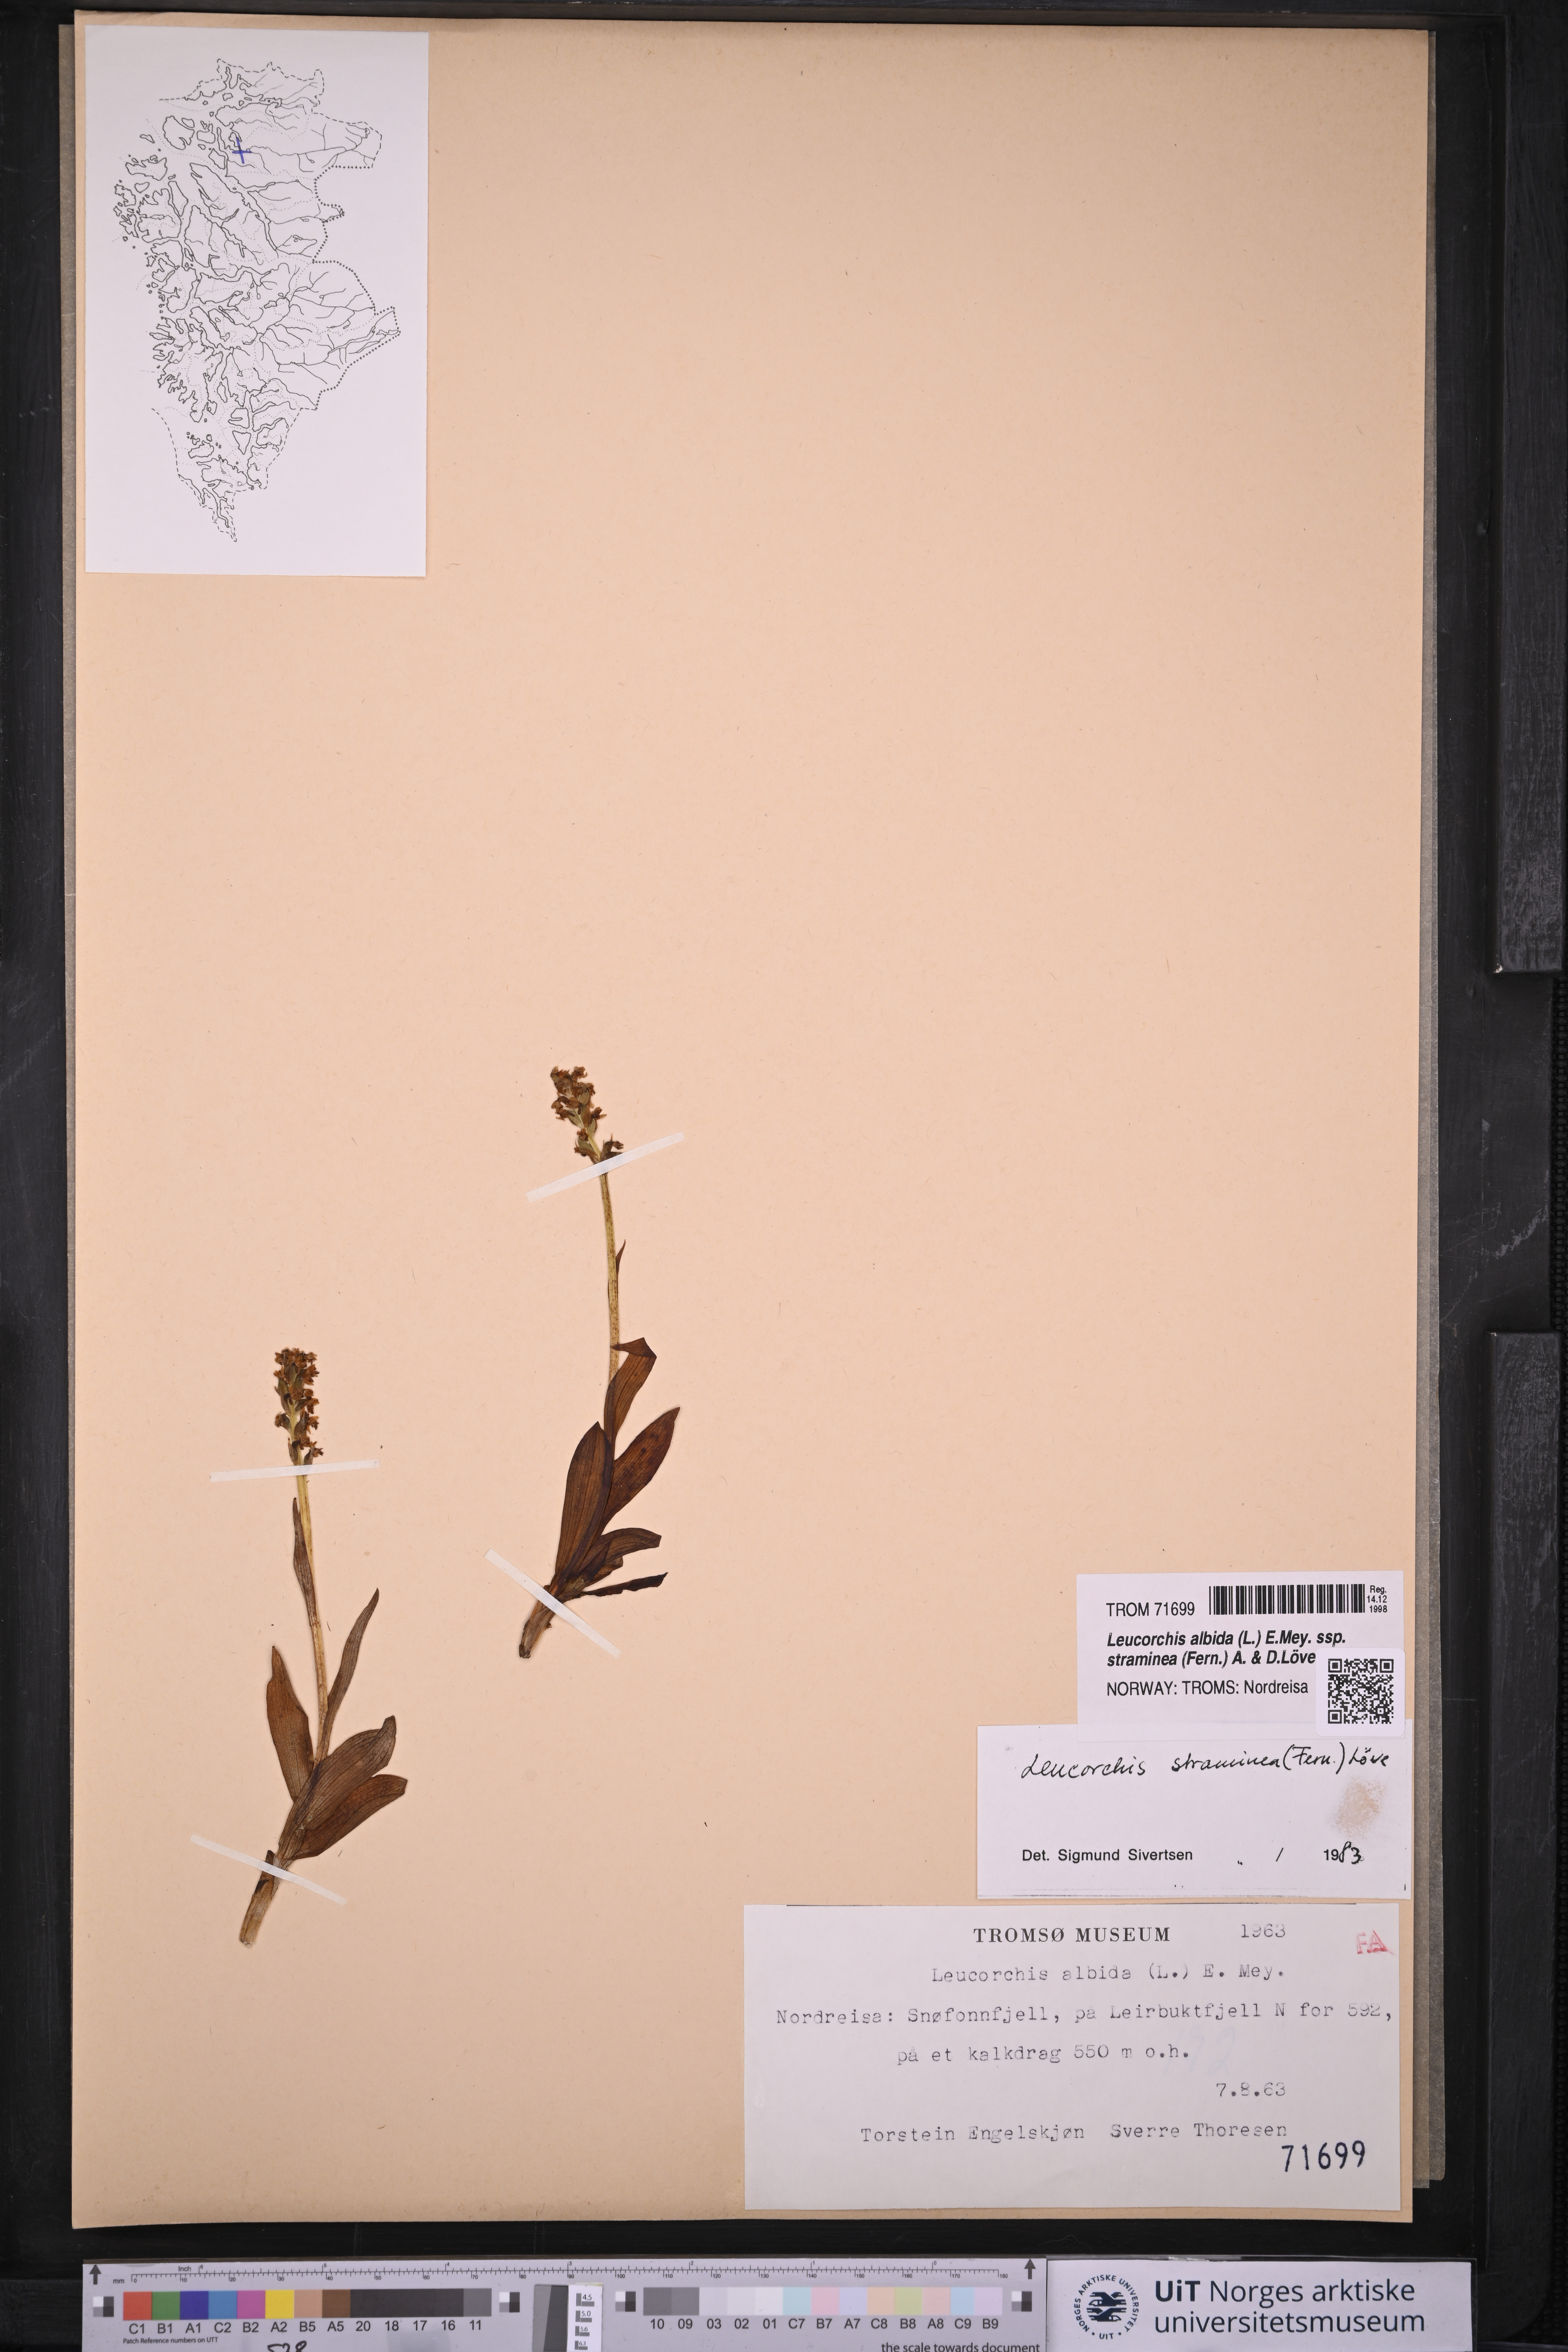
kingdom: Plantae
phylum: Tracheophyta
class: Liliopsida
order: Asparagales
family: Orchidaceae
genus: Pseudorchis
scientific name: Pseudorchis straminea
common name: Vanilla-scented bog orchid
